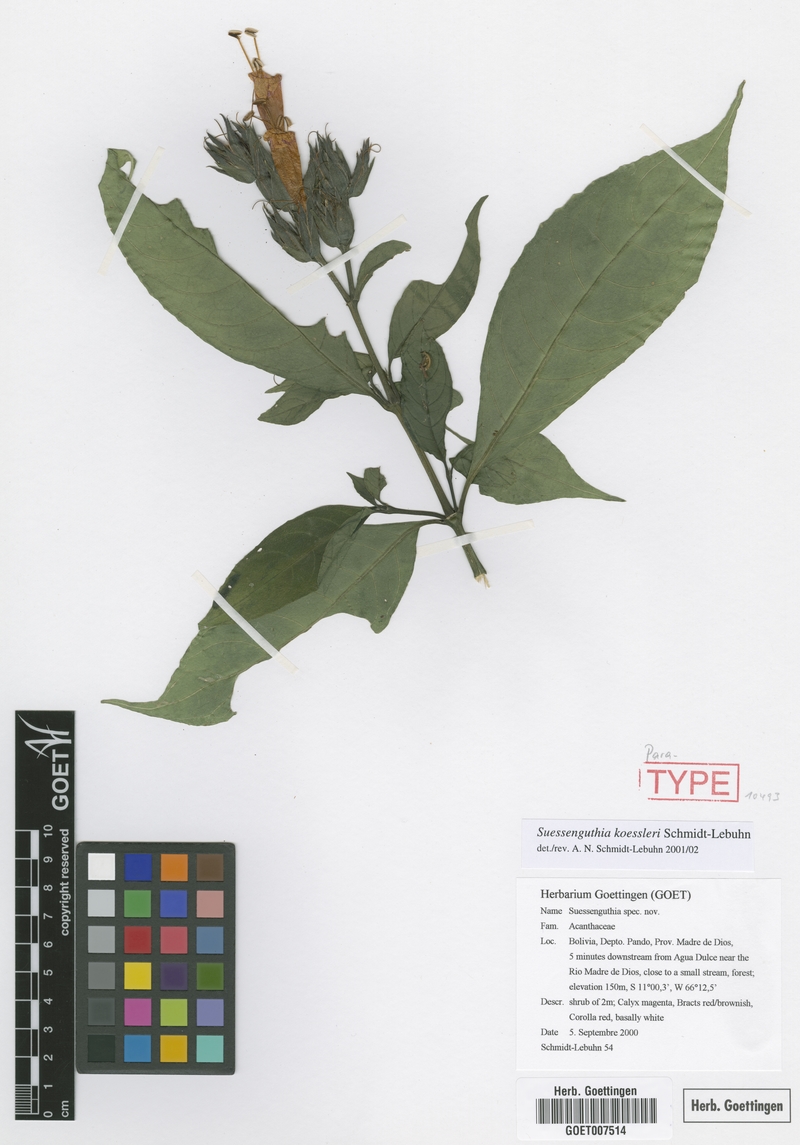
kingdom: Plantae
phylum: Tracheophyta
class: Magnoliopsida
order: Lamiales
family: Acanthaceae
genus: Suessenguthia
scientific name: Suessenguthia koessleri
